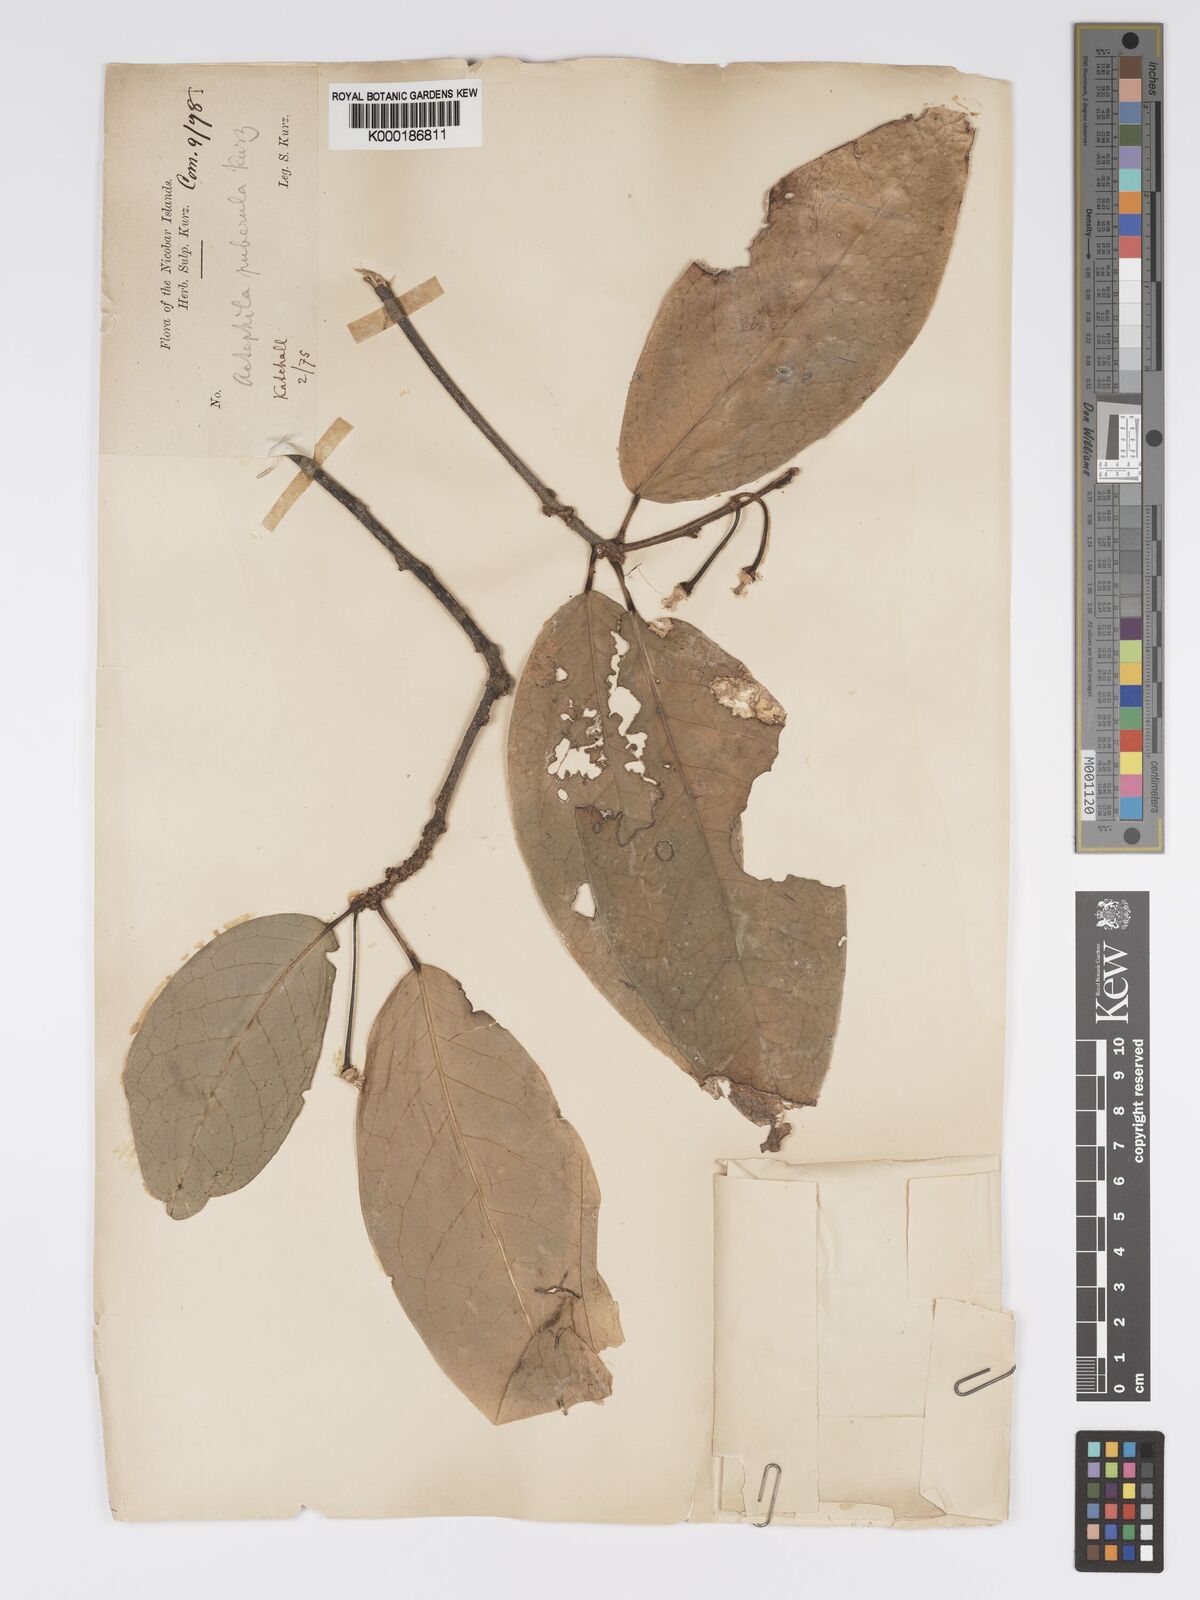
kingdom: Plantae
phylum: Tracheophyta
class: Magnoliopsida
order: Malpighiales
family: Phyllanthaceae
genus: Actephila
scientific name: Actephila excelsa
